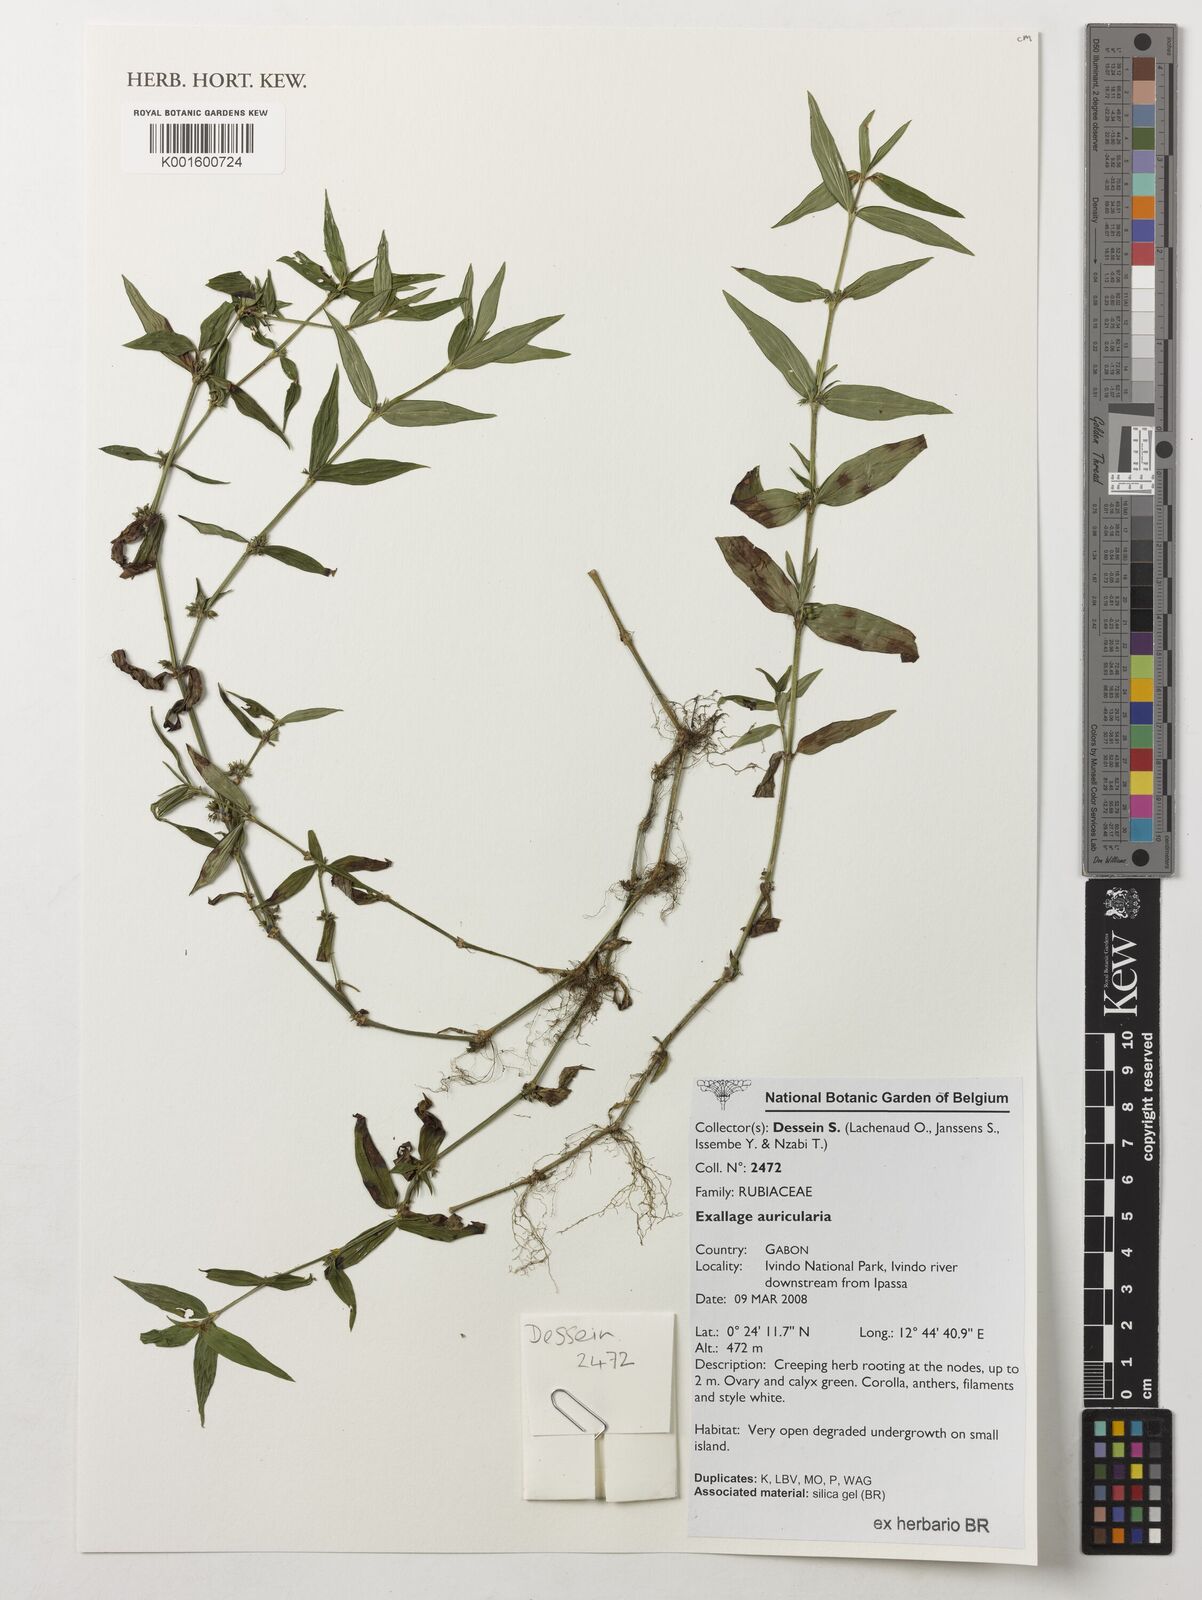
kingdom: Plantae
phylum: Tracheophyta
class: Magnoliopsida
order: Gentianales
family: Rubiaceae
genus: Exallage
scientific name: Exallage auricularia
